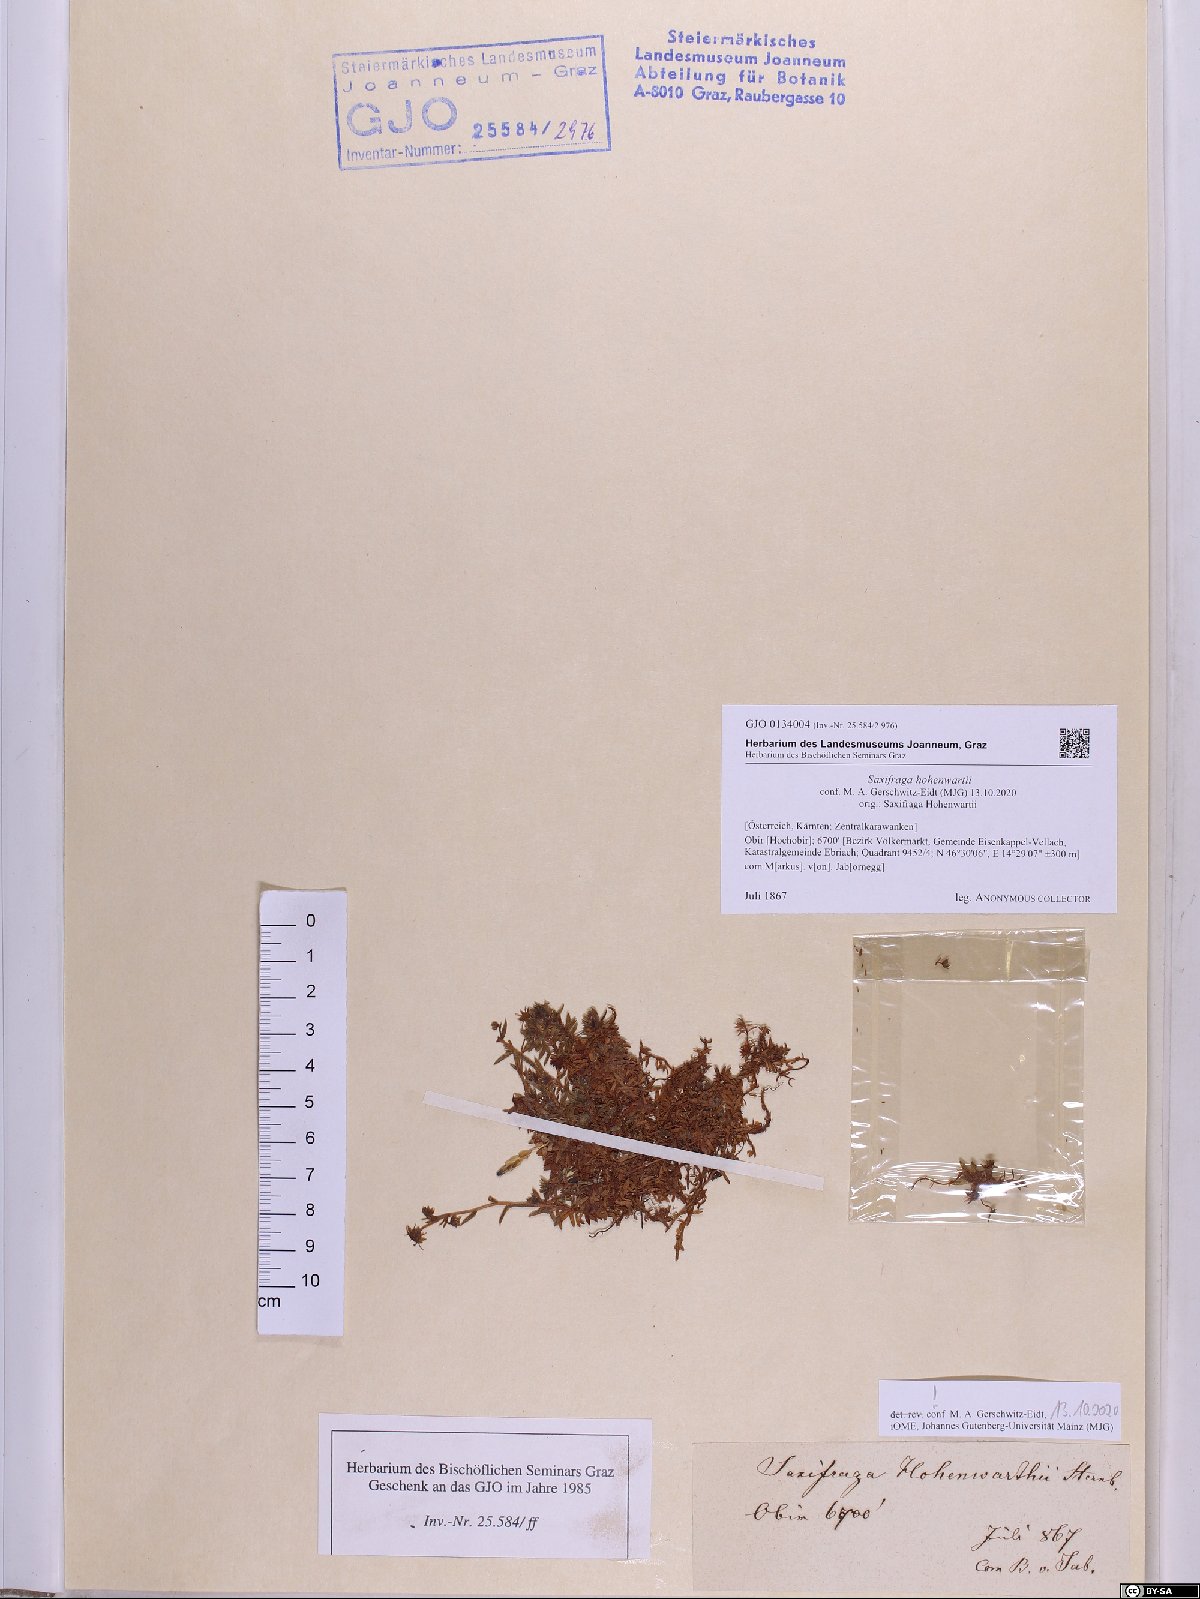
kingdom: Plantae
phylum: Tracheophyta
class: Magnoliopsida
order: Saxifragales
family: Saxifragaceae
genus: Saxifraga
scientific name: Saxifraga hohenwartii
